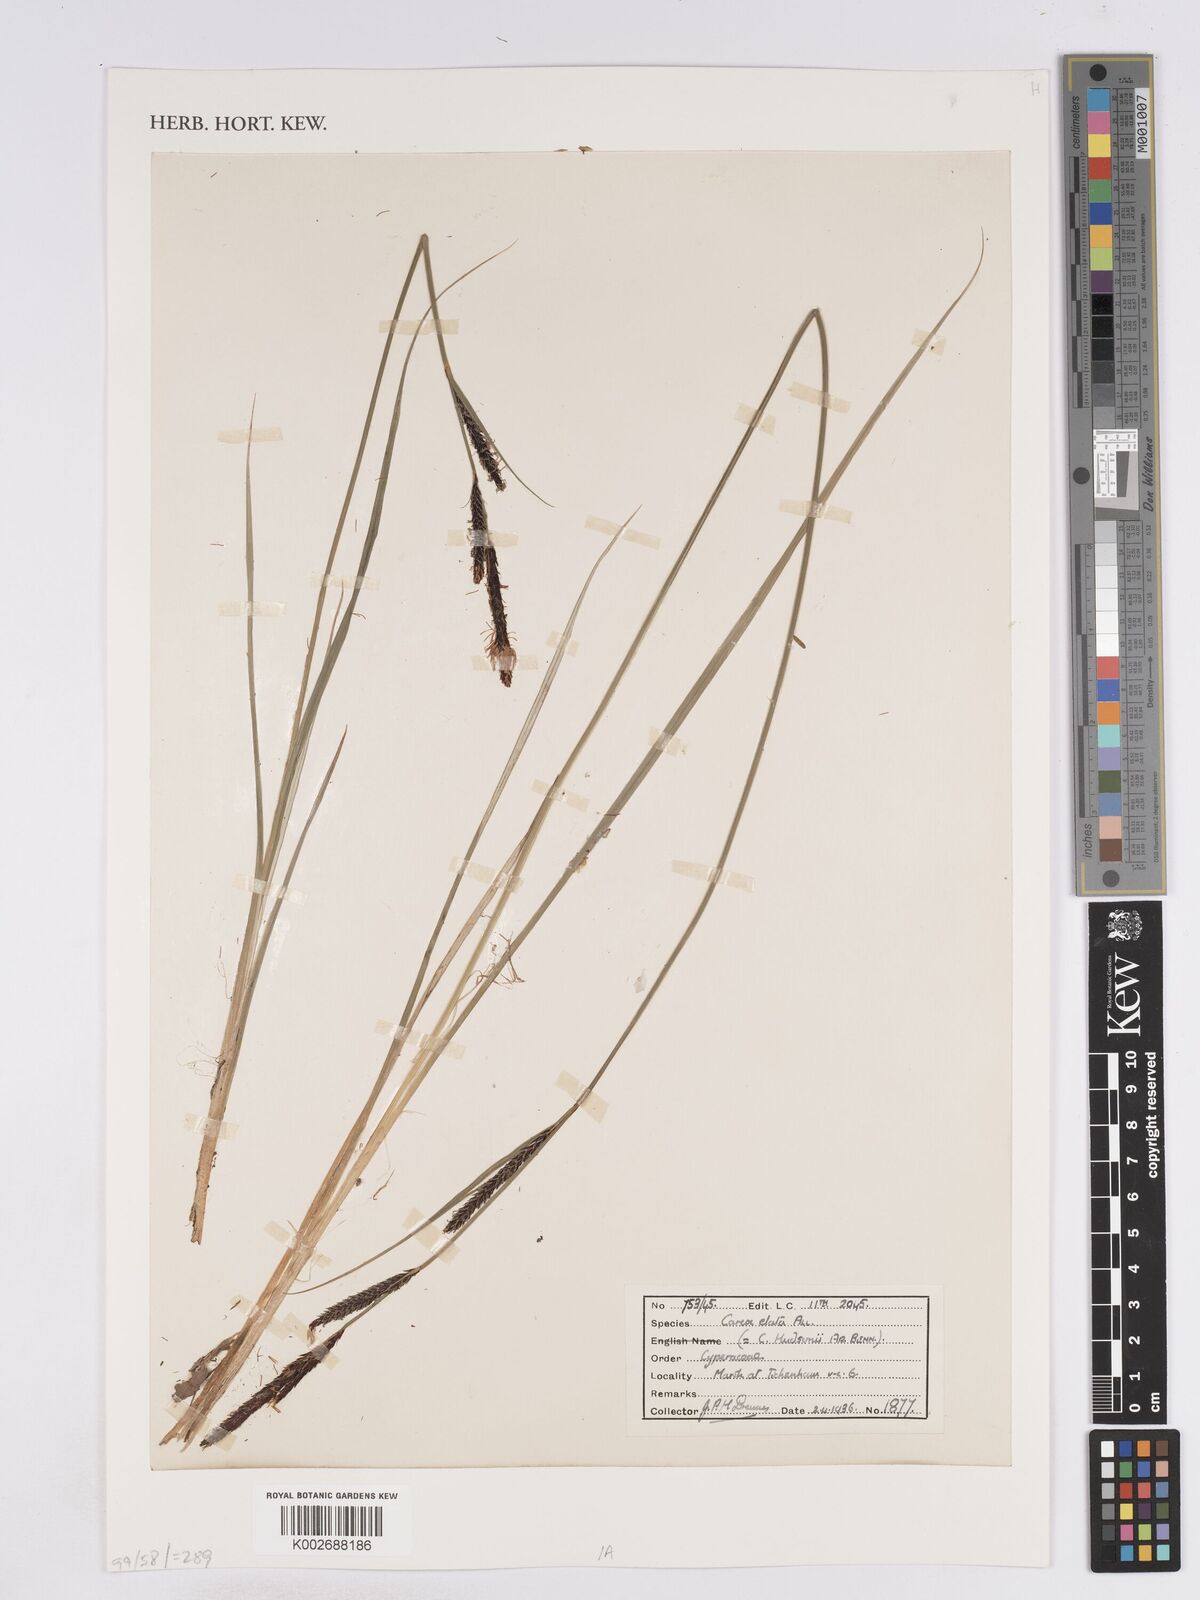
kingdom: Plantae
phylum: Tracheophyta
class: Liliopsida
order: Poales
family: Cyperaceae
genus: Carex
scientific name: Carex elata
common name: Tufted sedge
